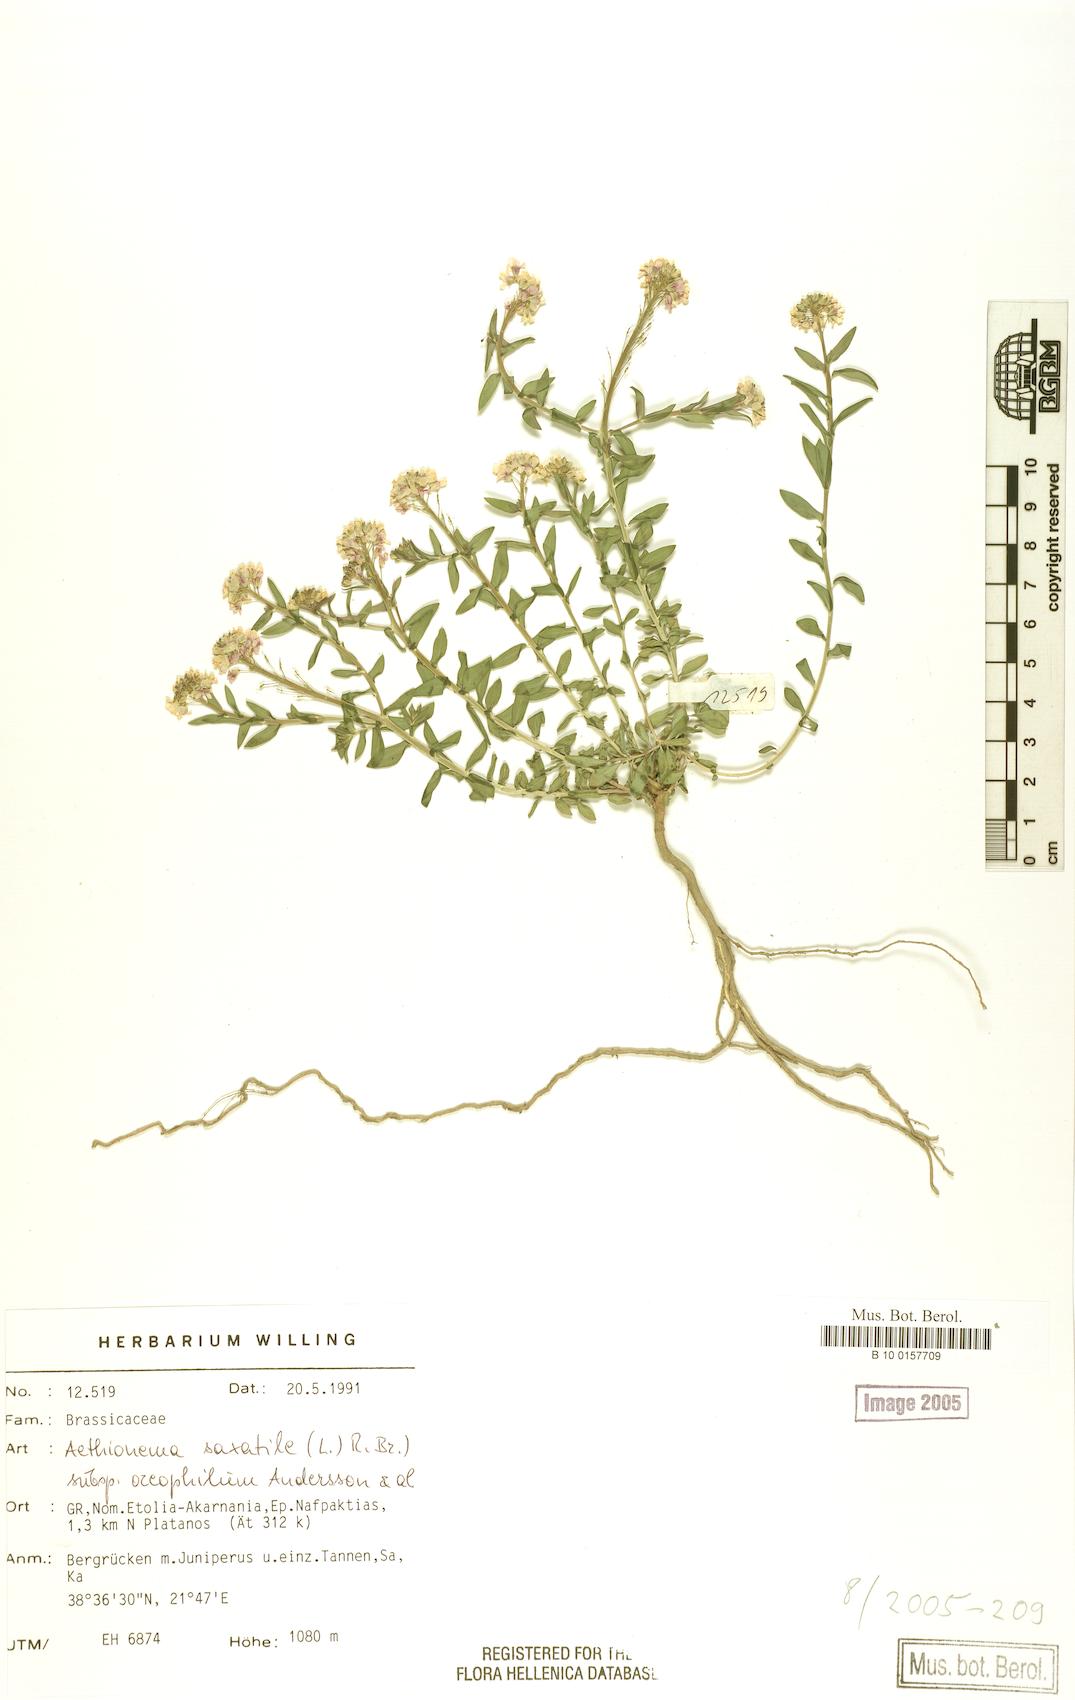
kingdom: Plantae
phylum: Tracheophyta
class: Magnoliopsida
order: Brassicales
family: Brassicaceae
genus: Aethionema
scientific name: Aethionema saxatile
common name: Burnt candytuft
